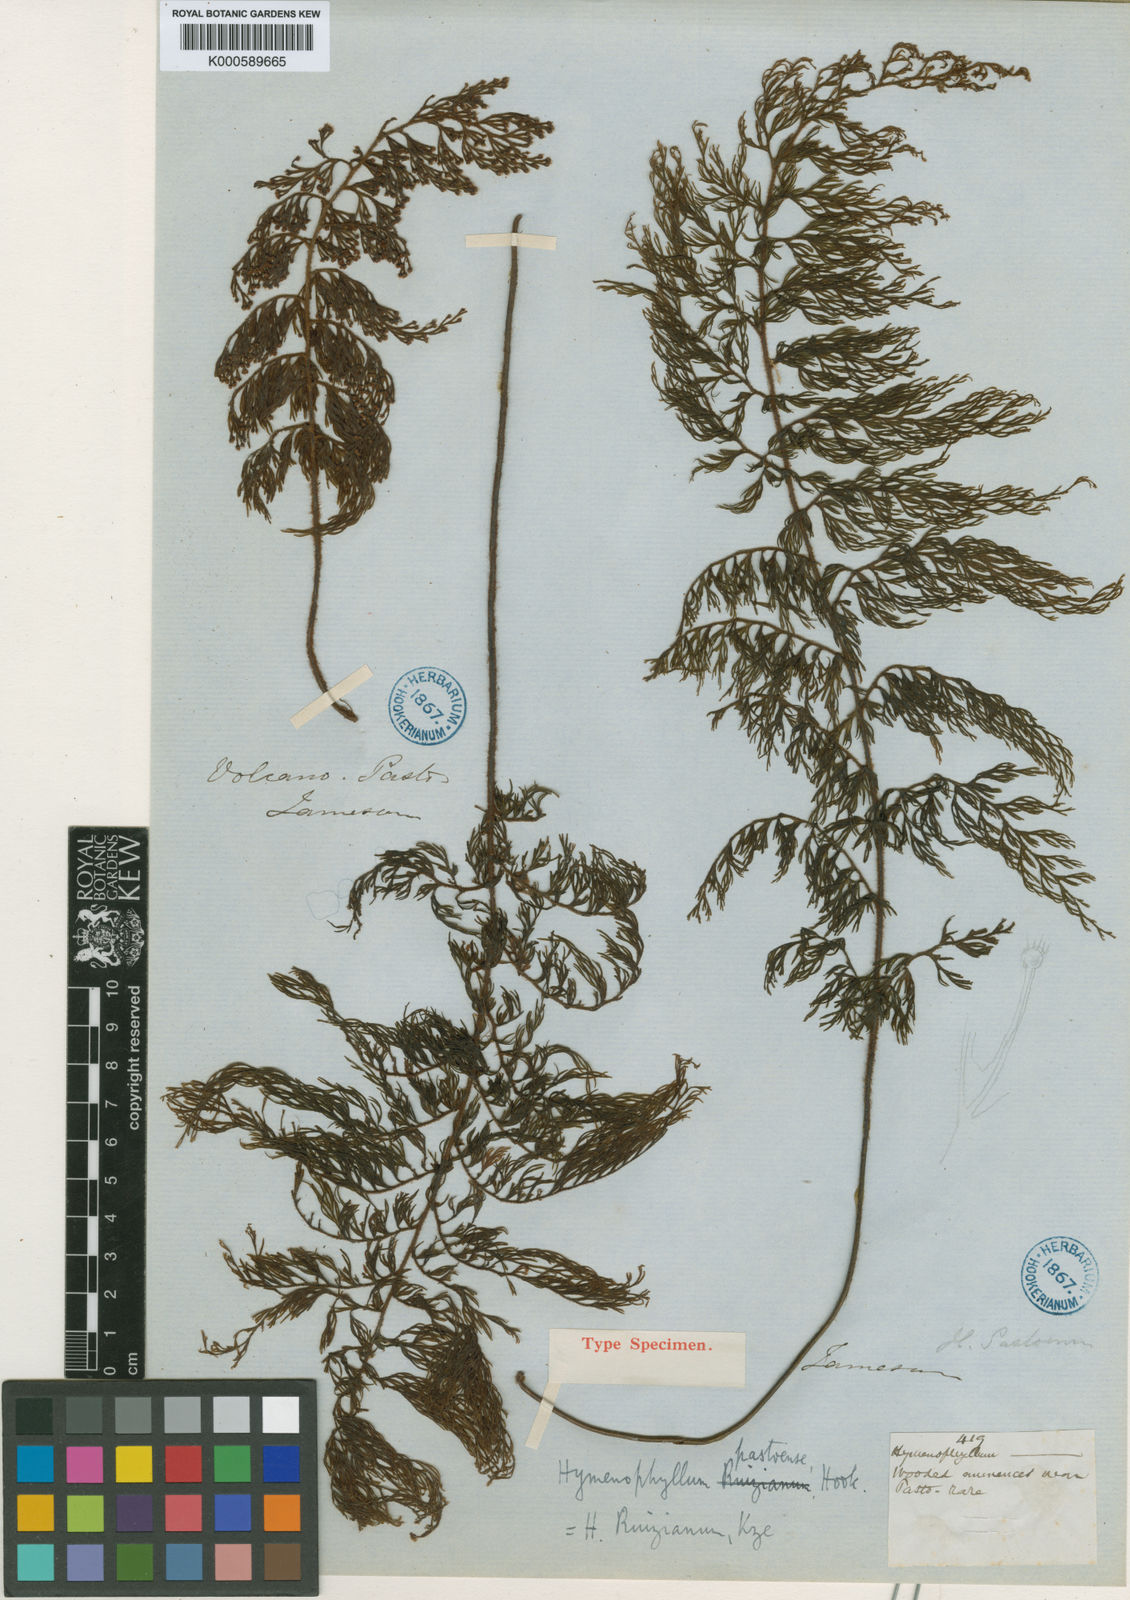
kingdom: Plantae
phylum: Tracheophyta
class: Polypodiopsida
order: Hymenophyllales
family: Hymenophyllaceae
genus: Hymenophyllum
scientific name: Hymenophyllum ruizianum
